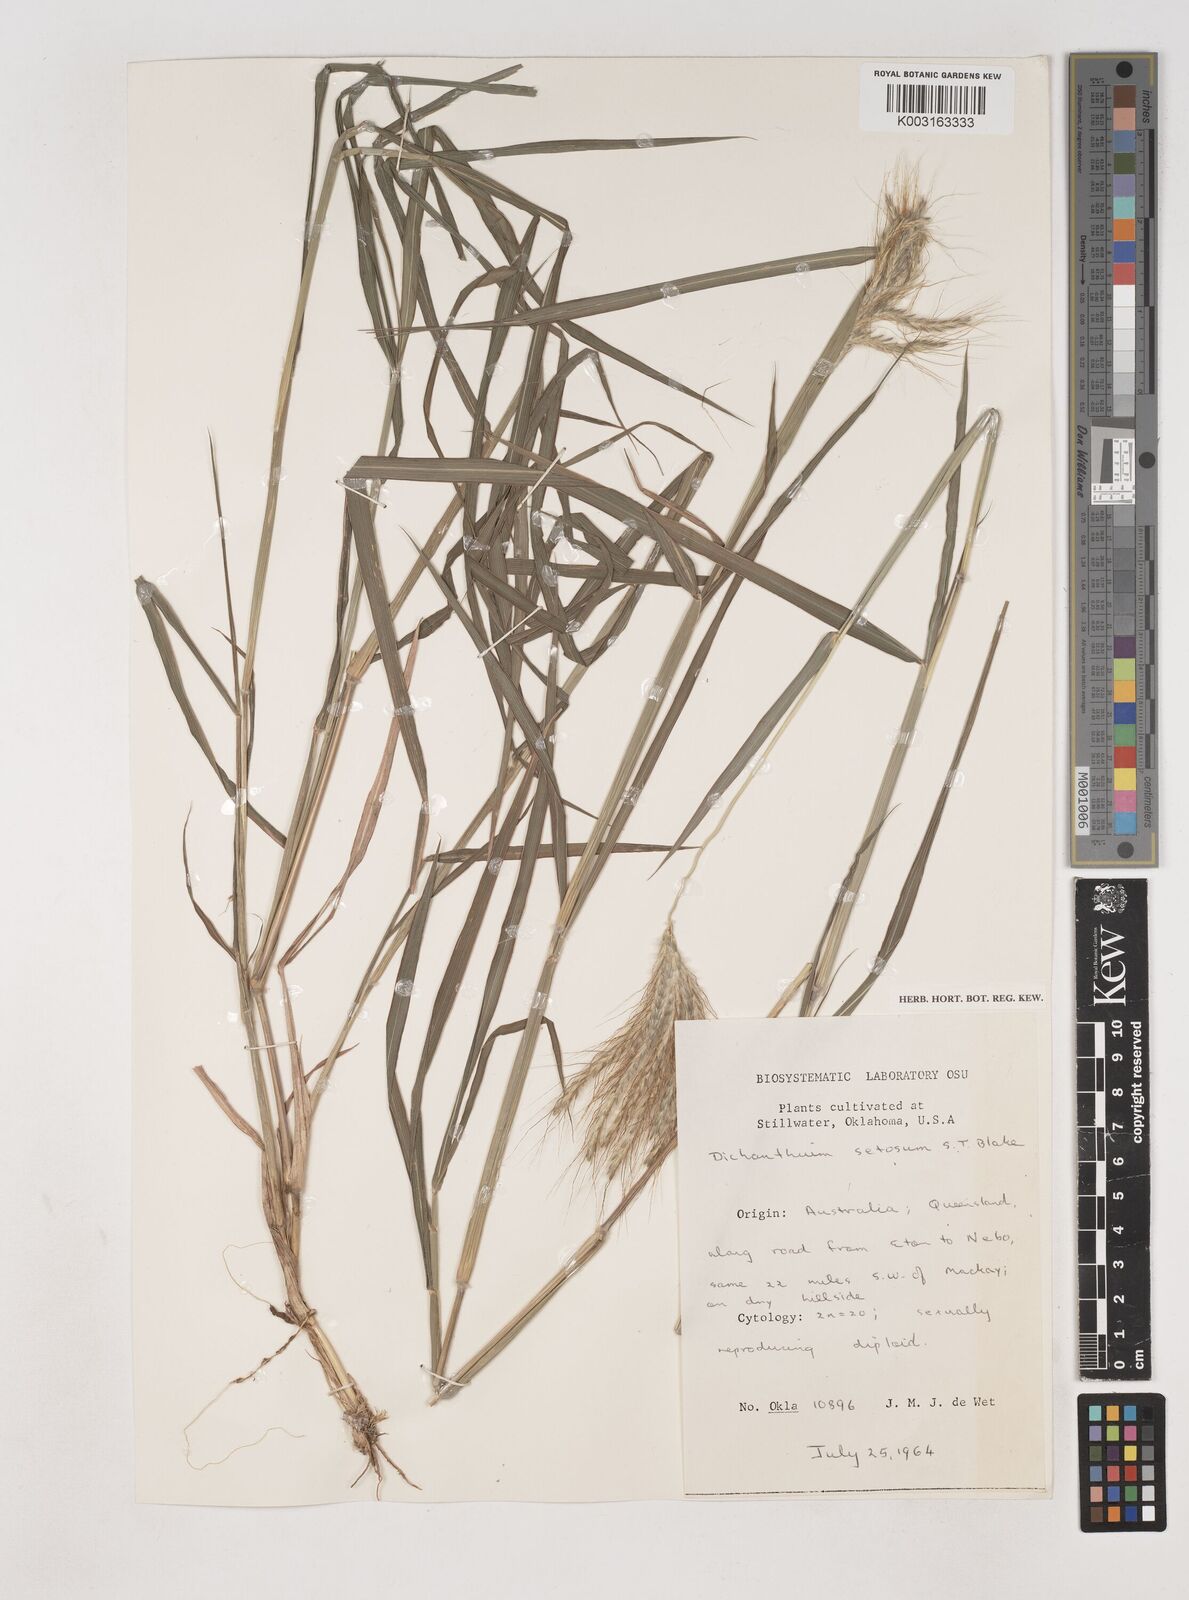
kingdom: Plantae
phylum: Tracheophyta
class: Liliopsida
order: Poales
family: Poaceae
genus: Dichanthium
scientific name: Dichanthium sericeum
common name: Silky bluestem
